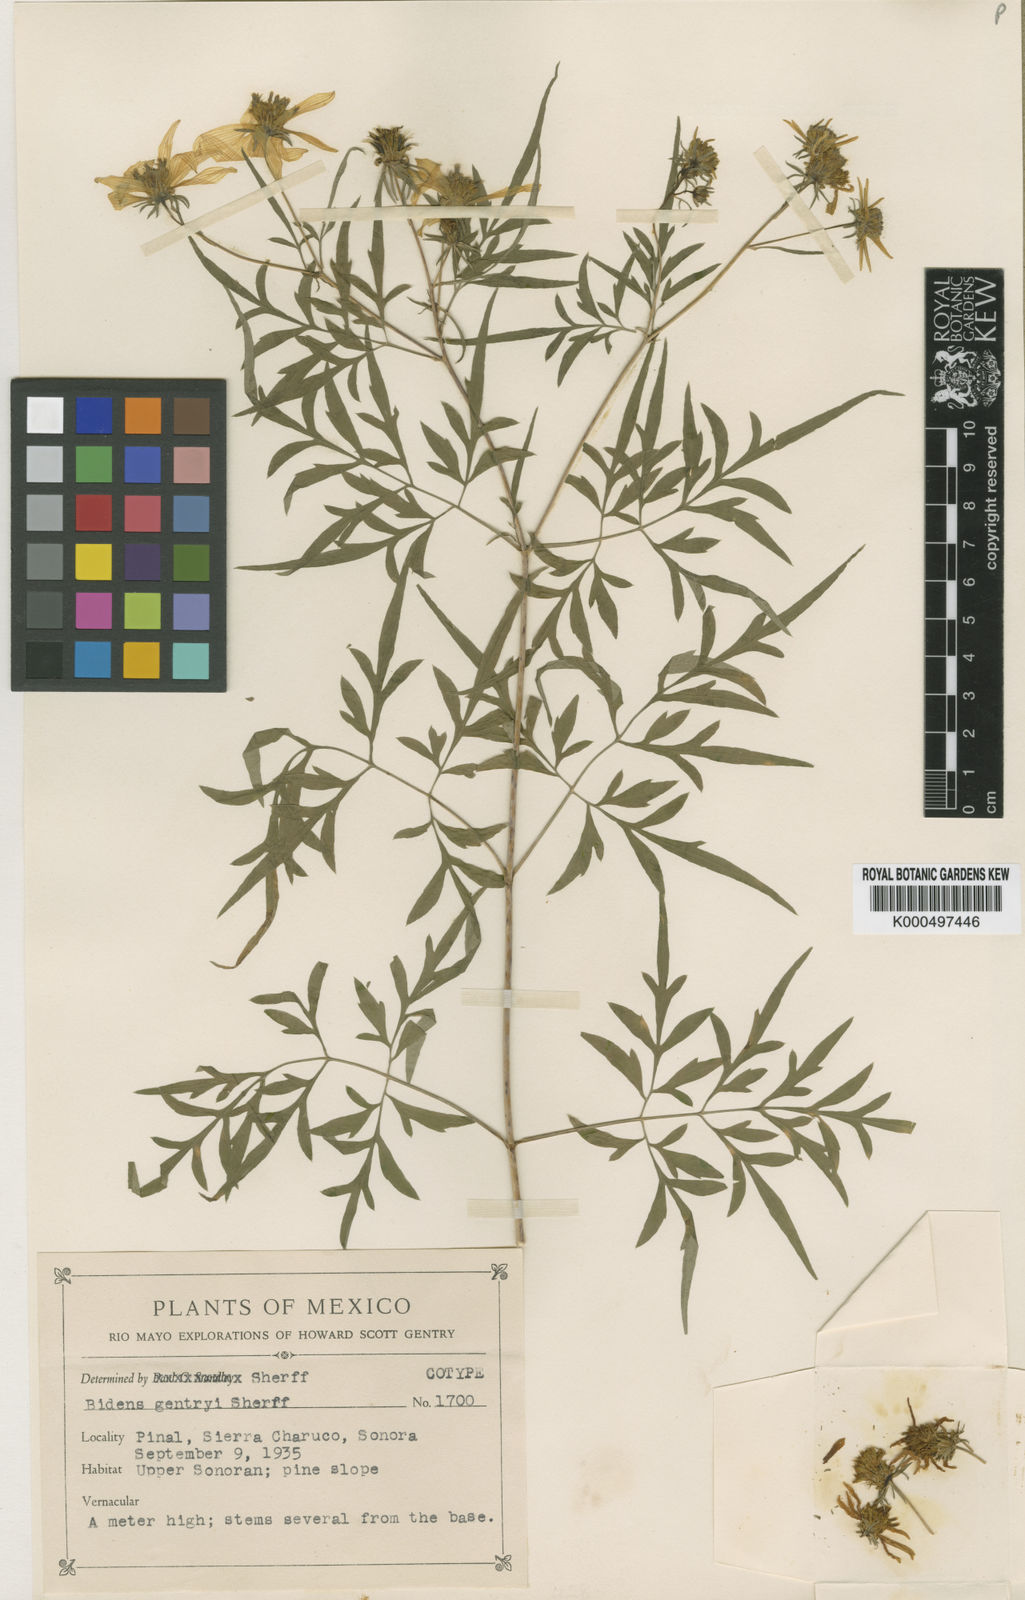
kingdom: Plantae
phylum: Tracheophyta
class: Magnoliopsida
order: Asterales
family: Asteraceae
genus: Bidens
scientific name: Bidens gentryi
